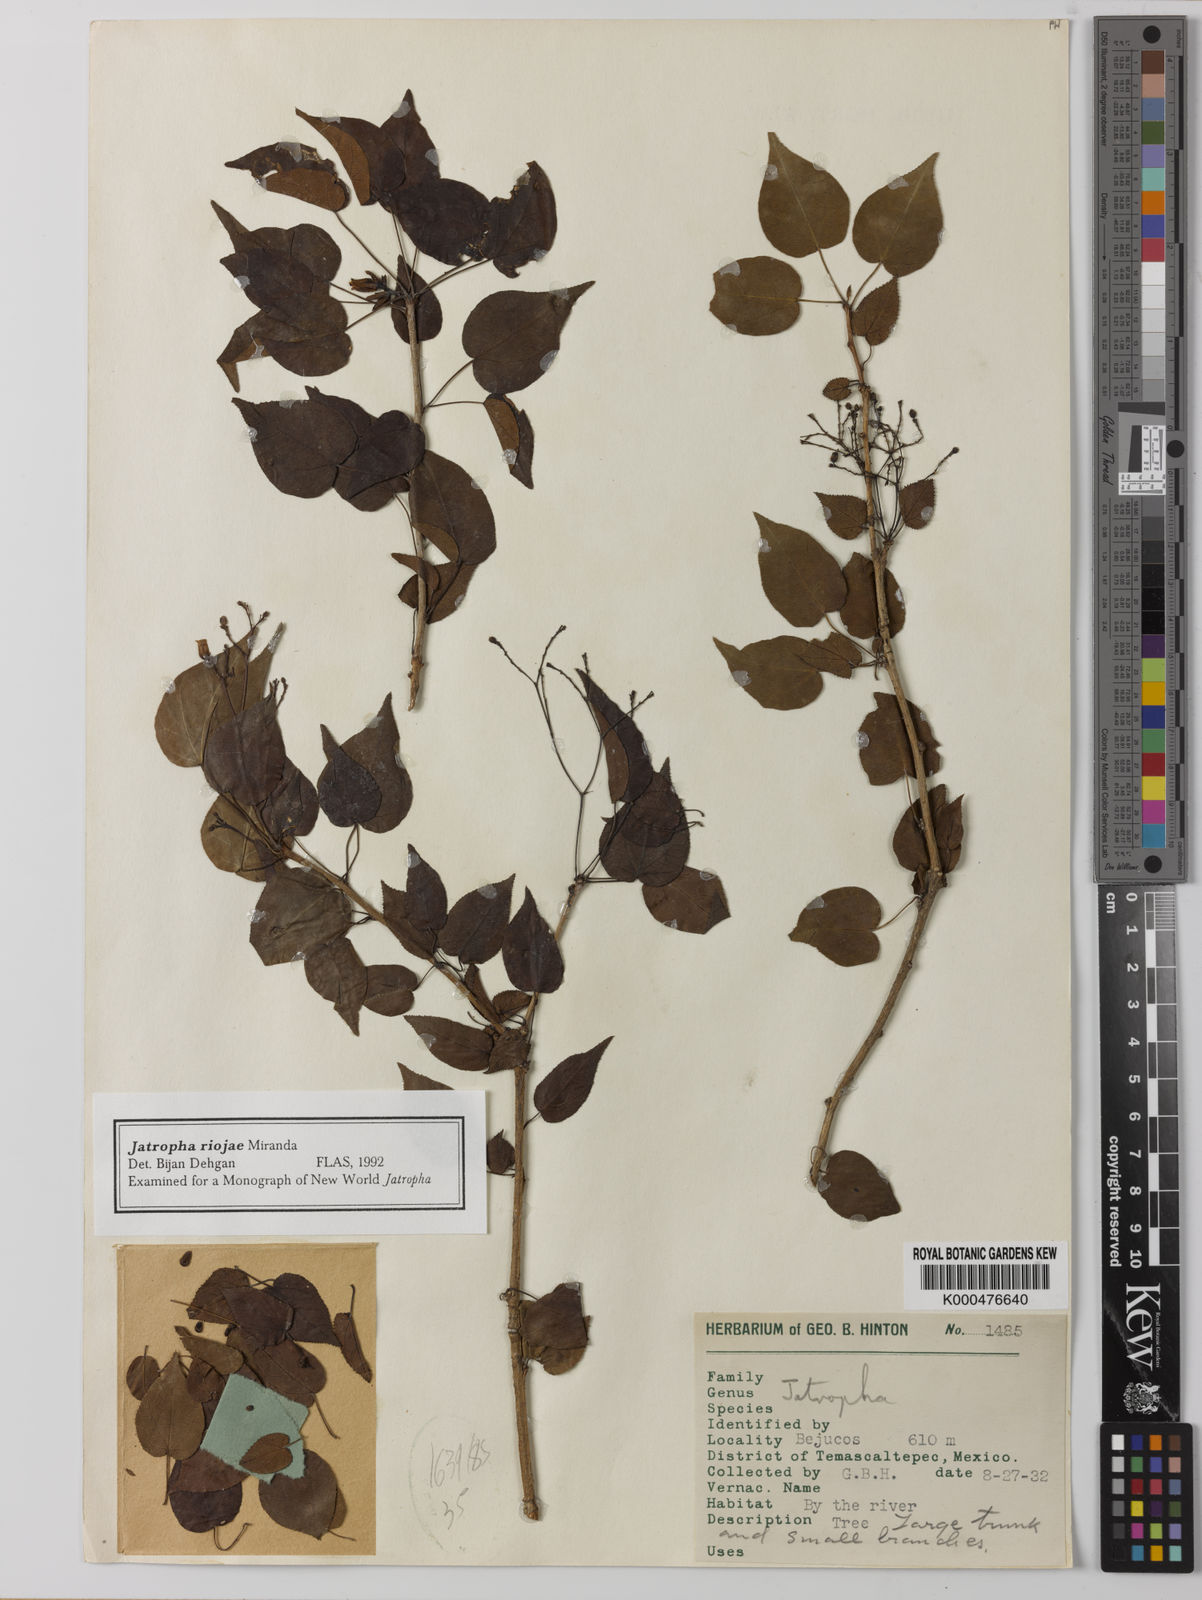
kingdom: Plantae
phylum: Tracheophyta
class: Magnoliopsida
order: Malpighiales
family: Euphorbiaceae
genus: Jatropha
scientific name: Jatropha riojae
